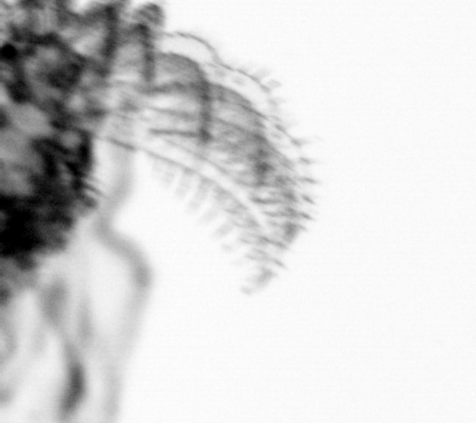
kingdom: Animalia
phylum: Arthropoda
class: Maxillopoda
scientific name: Maxillopoda
